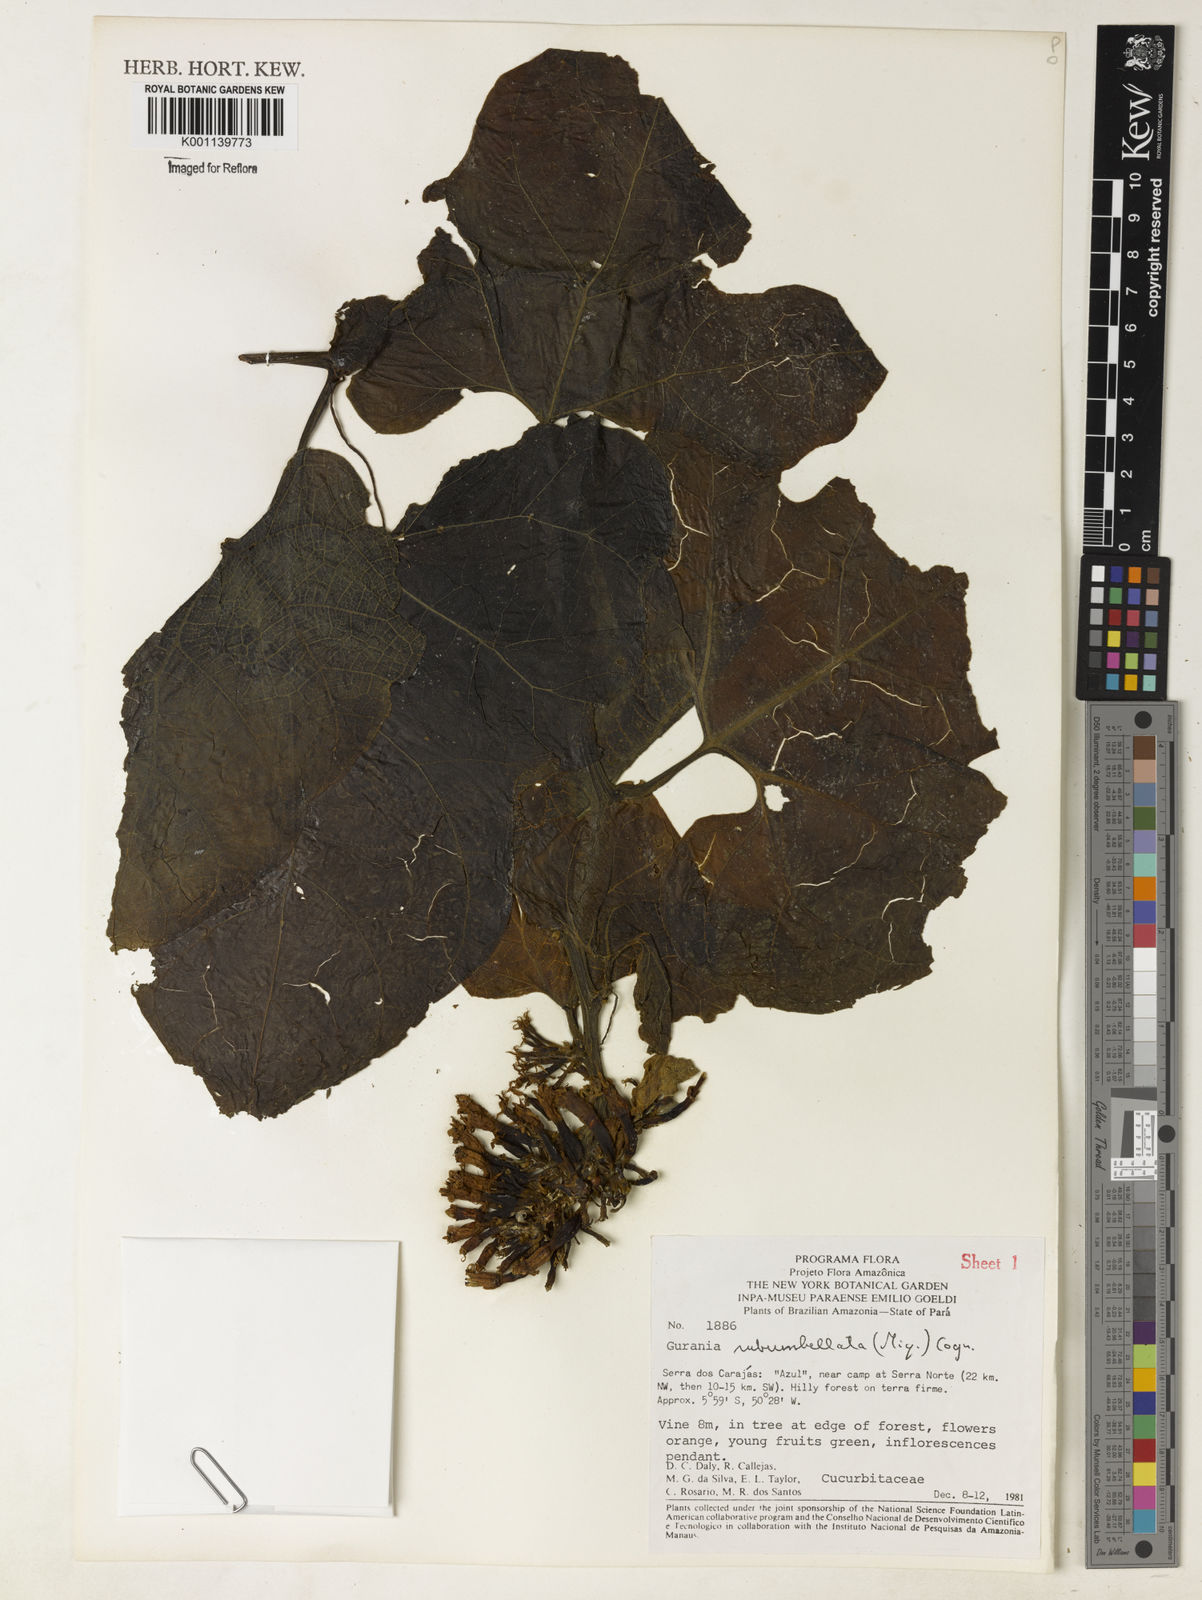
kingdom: Plantae
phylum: Tracheophyta
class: Magnoliopsida
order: Cucurbitales
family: Cucurbitaceae
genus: Gurania
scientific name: Gurania subumbellata
